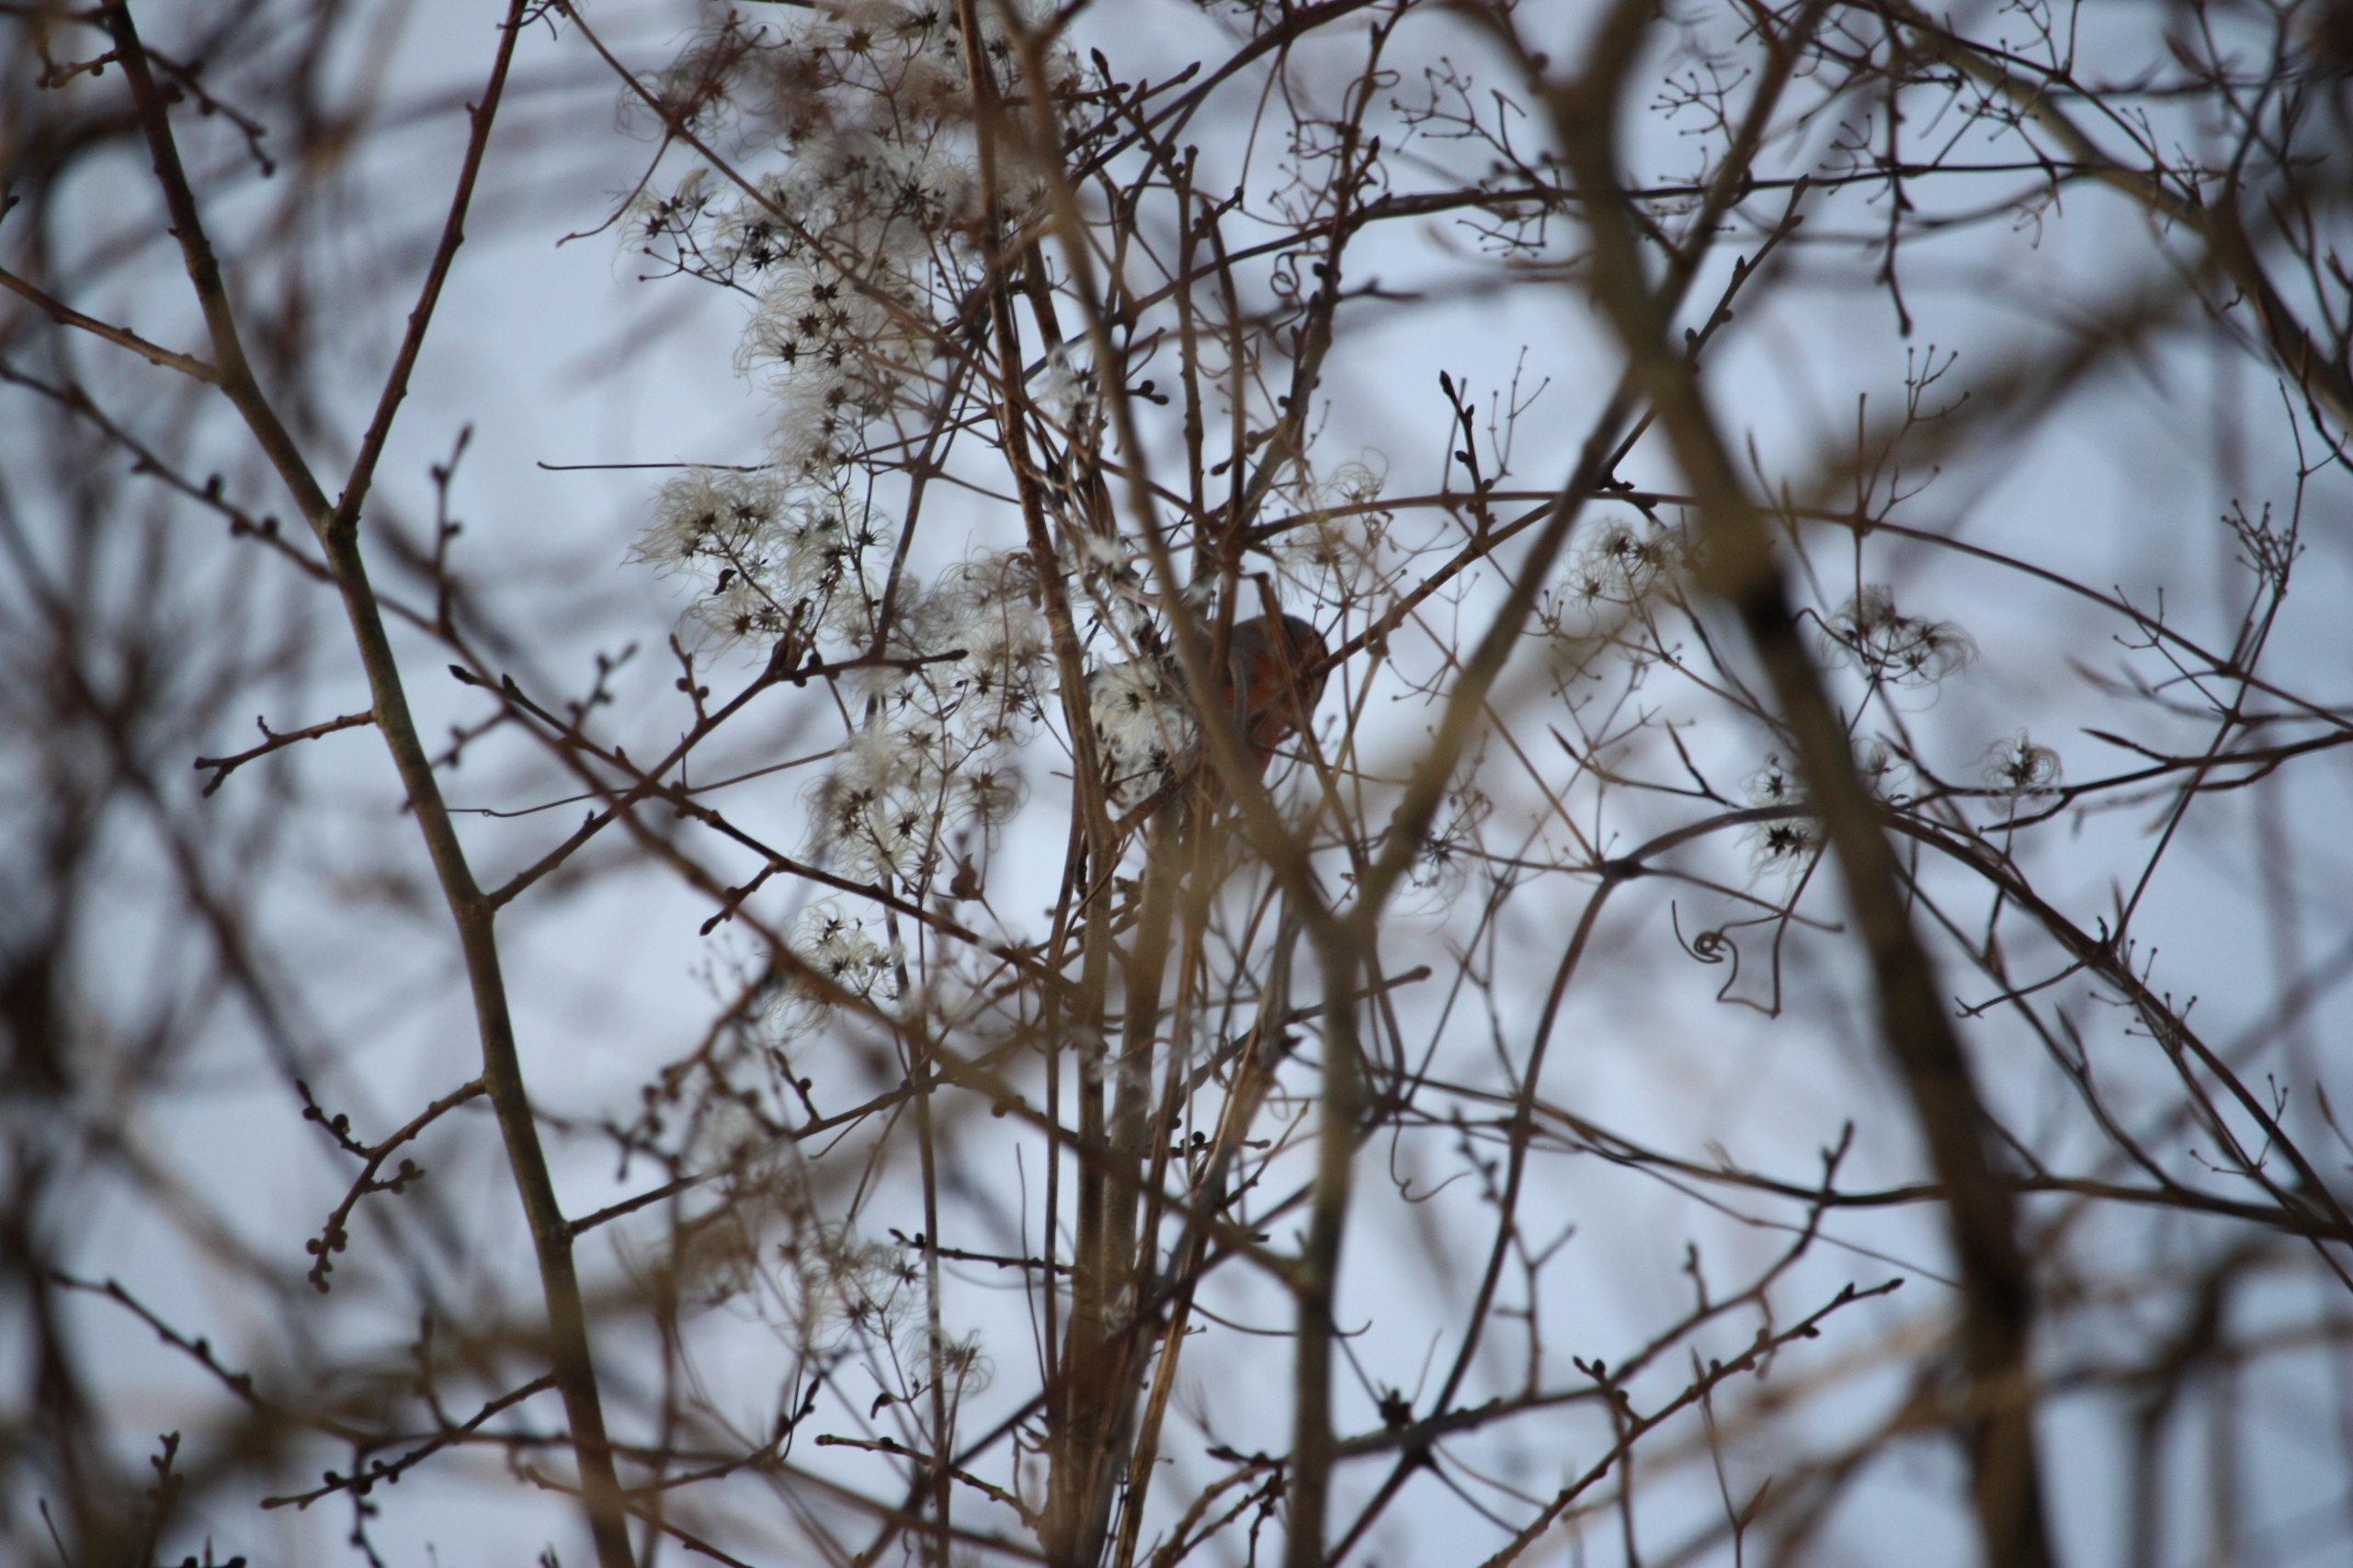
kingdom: Animalia
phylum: Chordata
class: Aves
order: Passeriformes
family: Fringillidae
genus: Pyrrhula
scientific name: Pyrrhula pyrrhula
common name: Dompap
